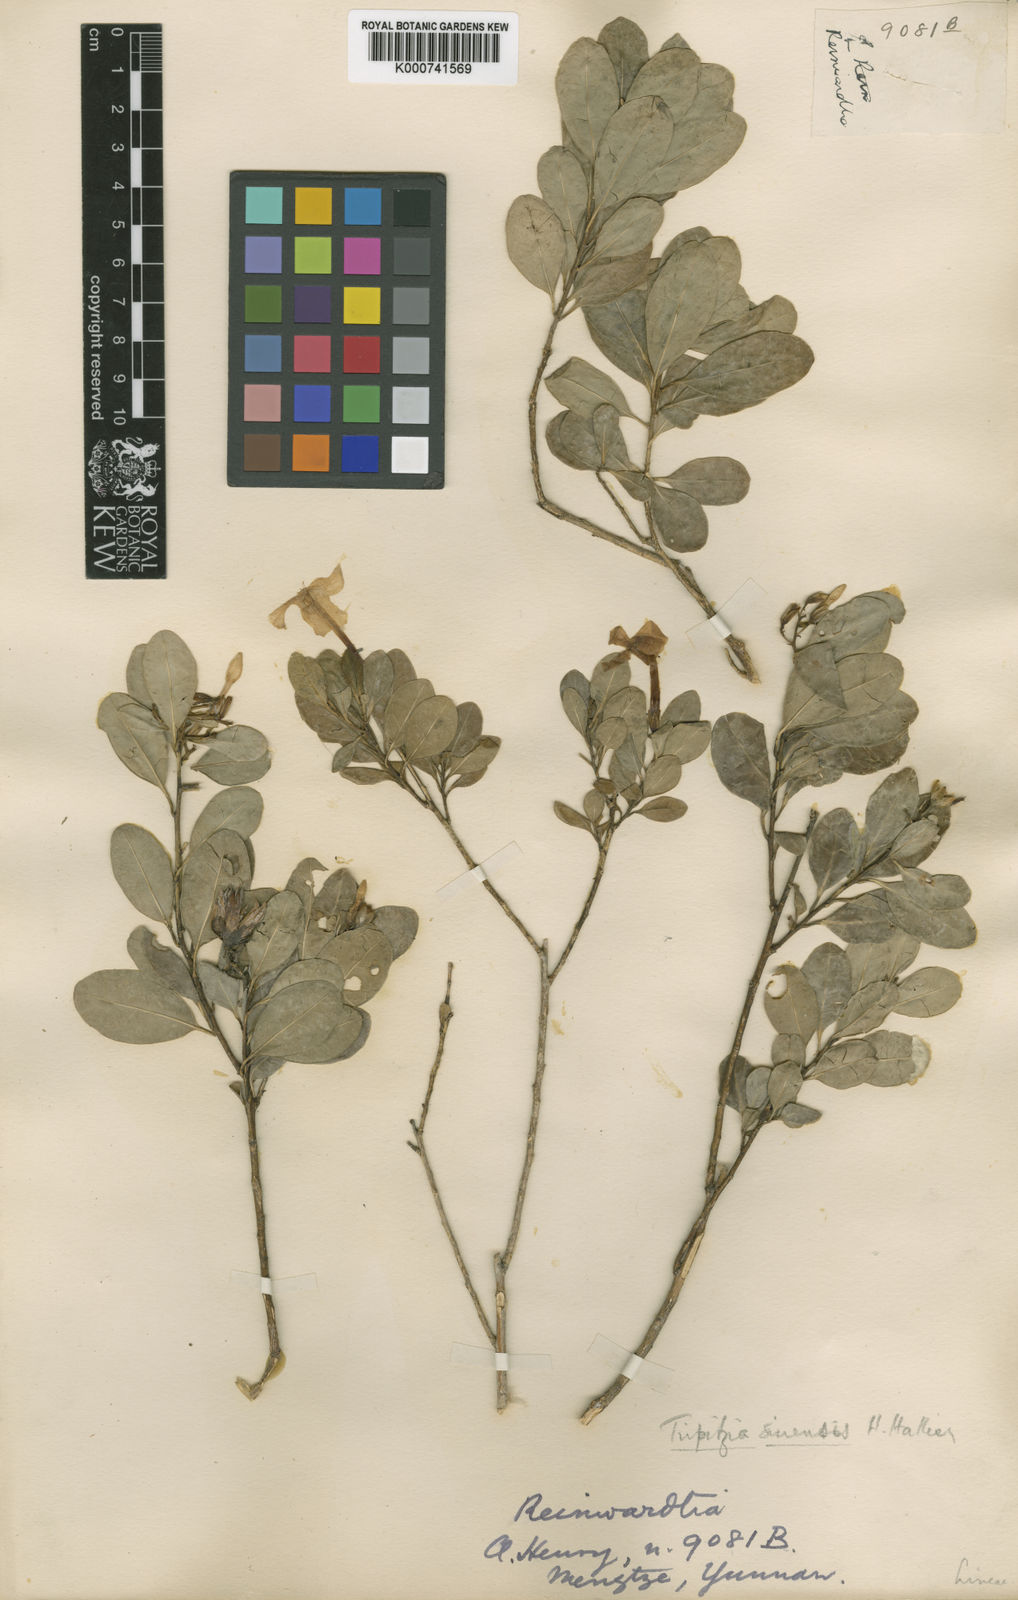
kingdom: Plantae
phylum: Tracheophyta
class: Magnoliopsida
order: Malpighiales
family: Linaceae
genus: Tirpitzia
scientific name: Tirpitzia sinensis
